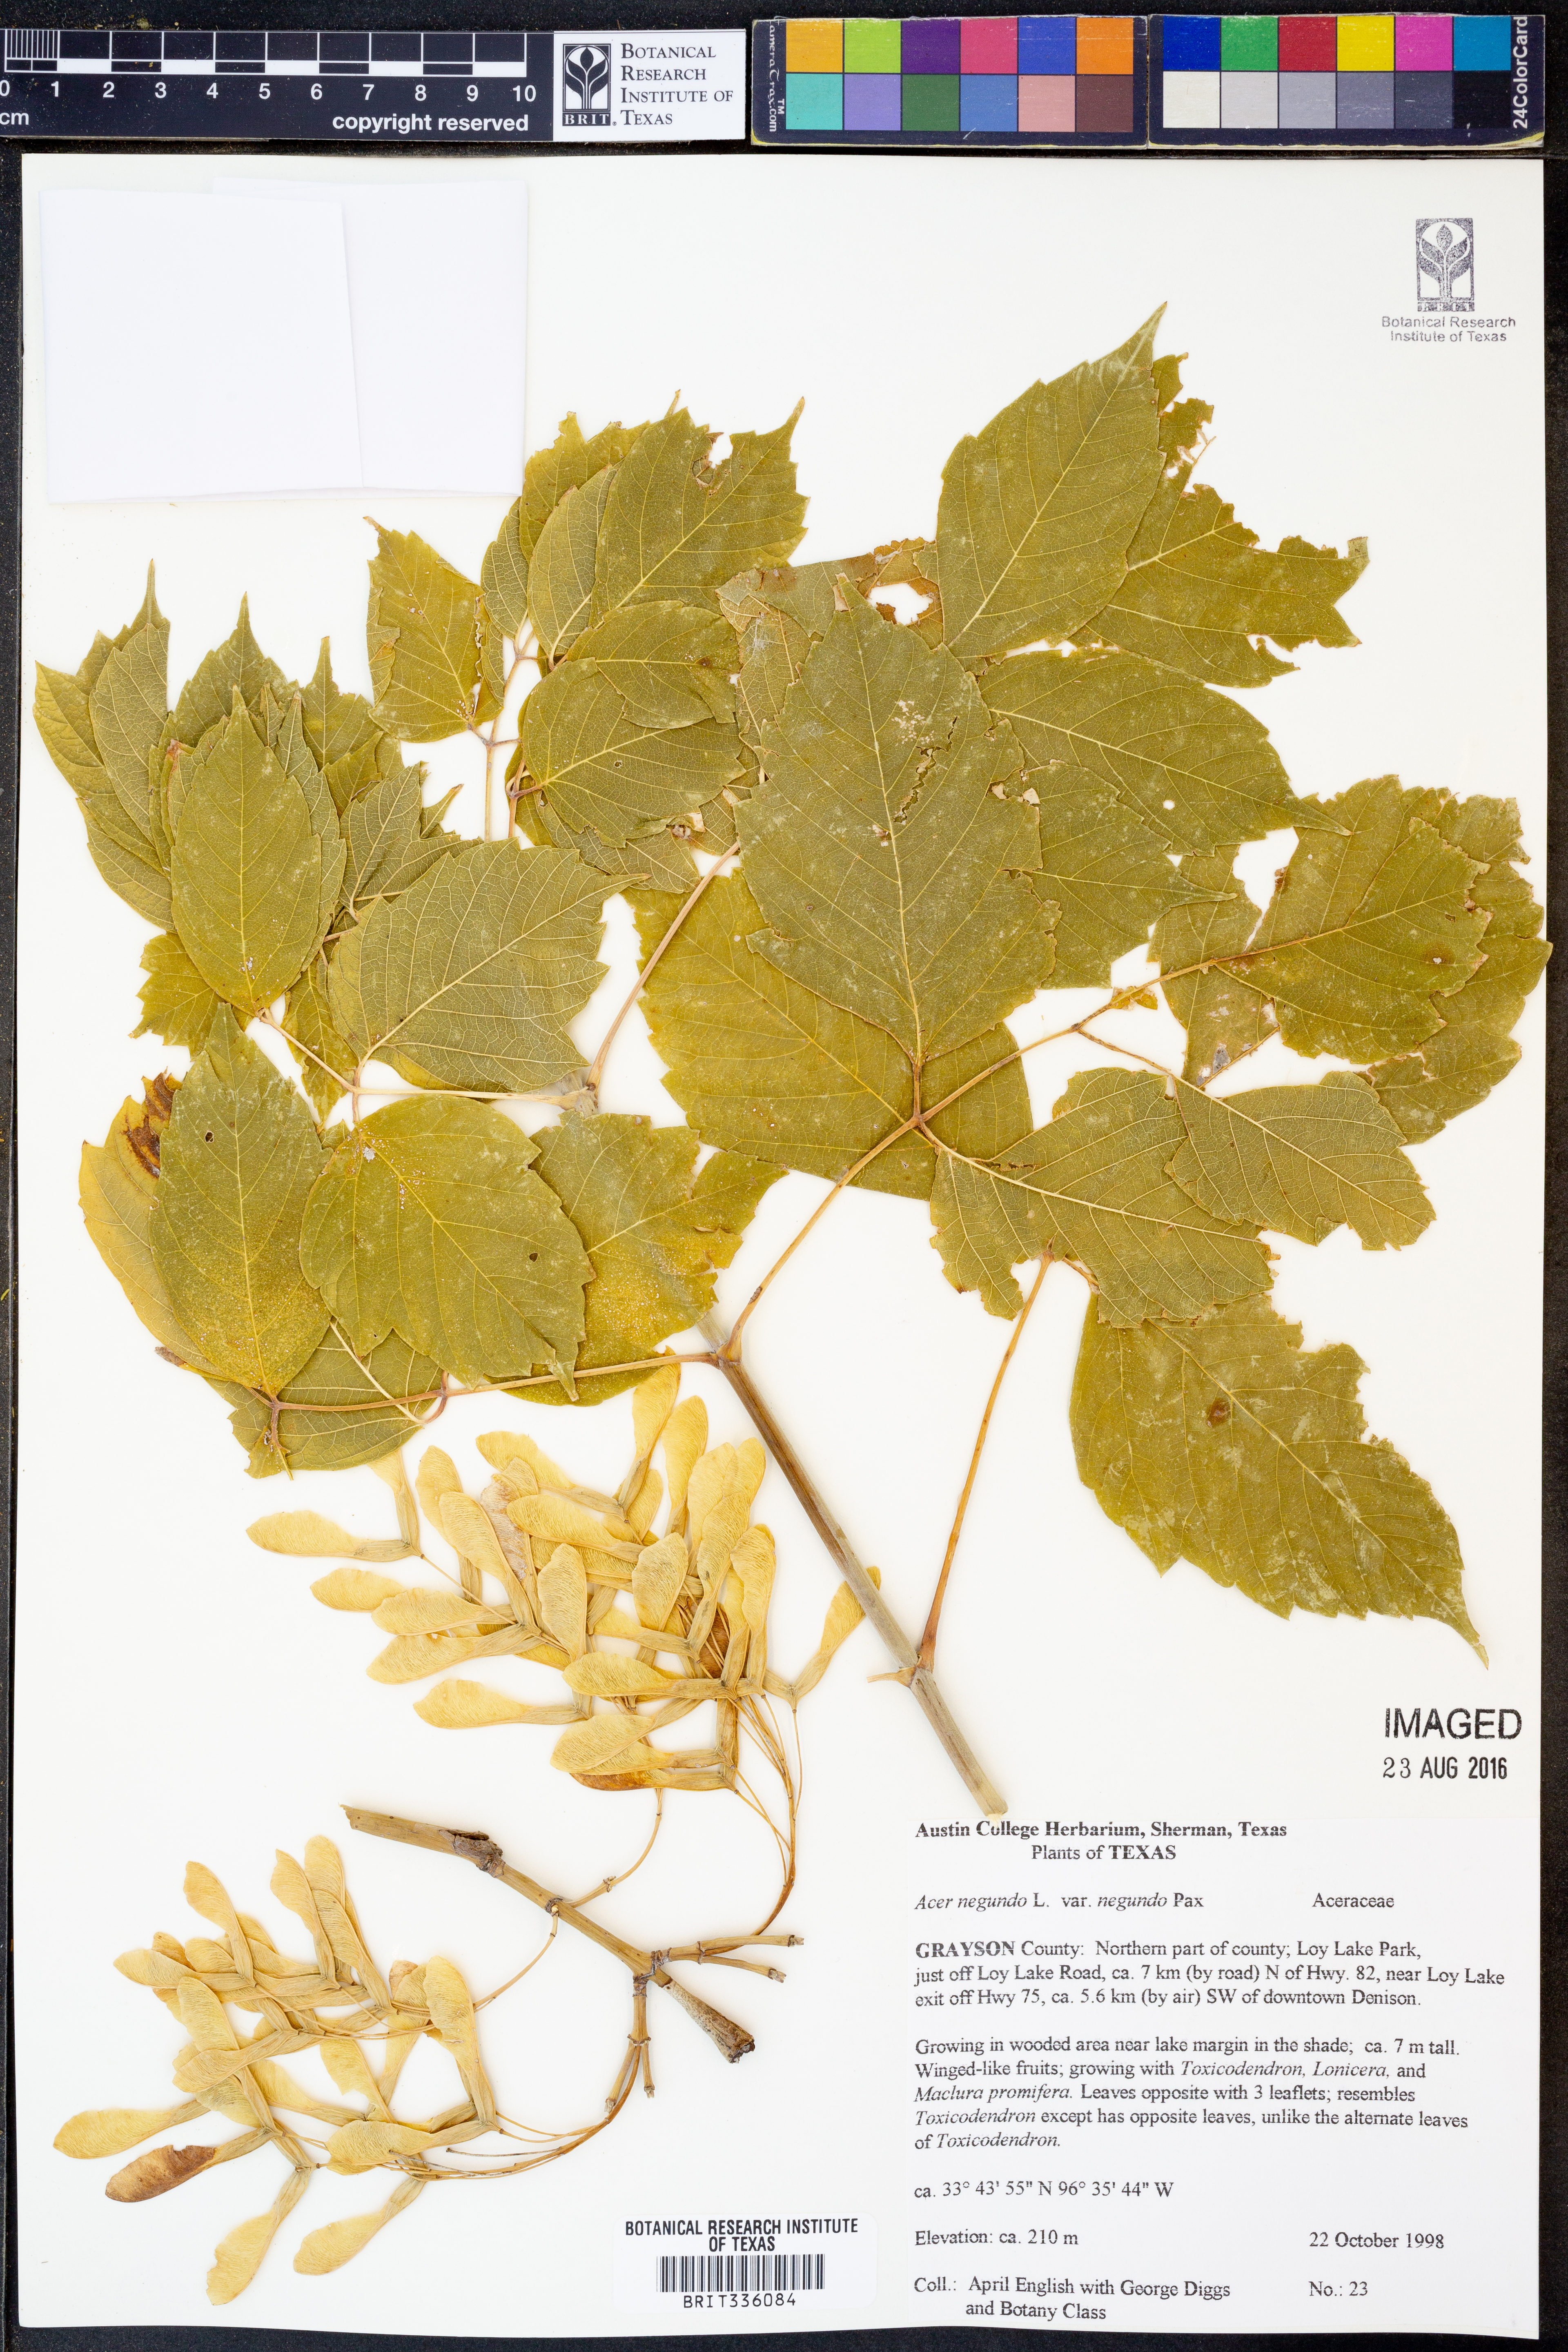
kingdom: Plantae
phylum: Tracheophyta
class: Magnoliopsida
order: Sapindales
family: Sapindaceae
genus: Acer
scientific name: Acer negundo
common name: Ashleaf maple
